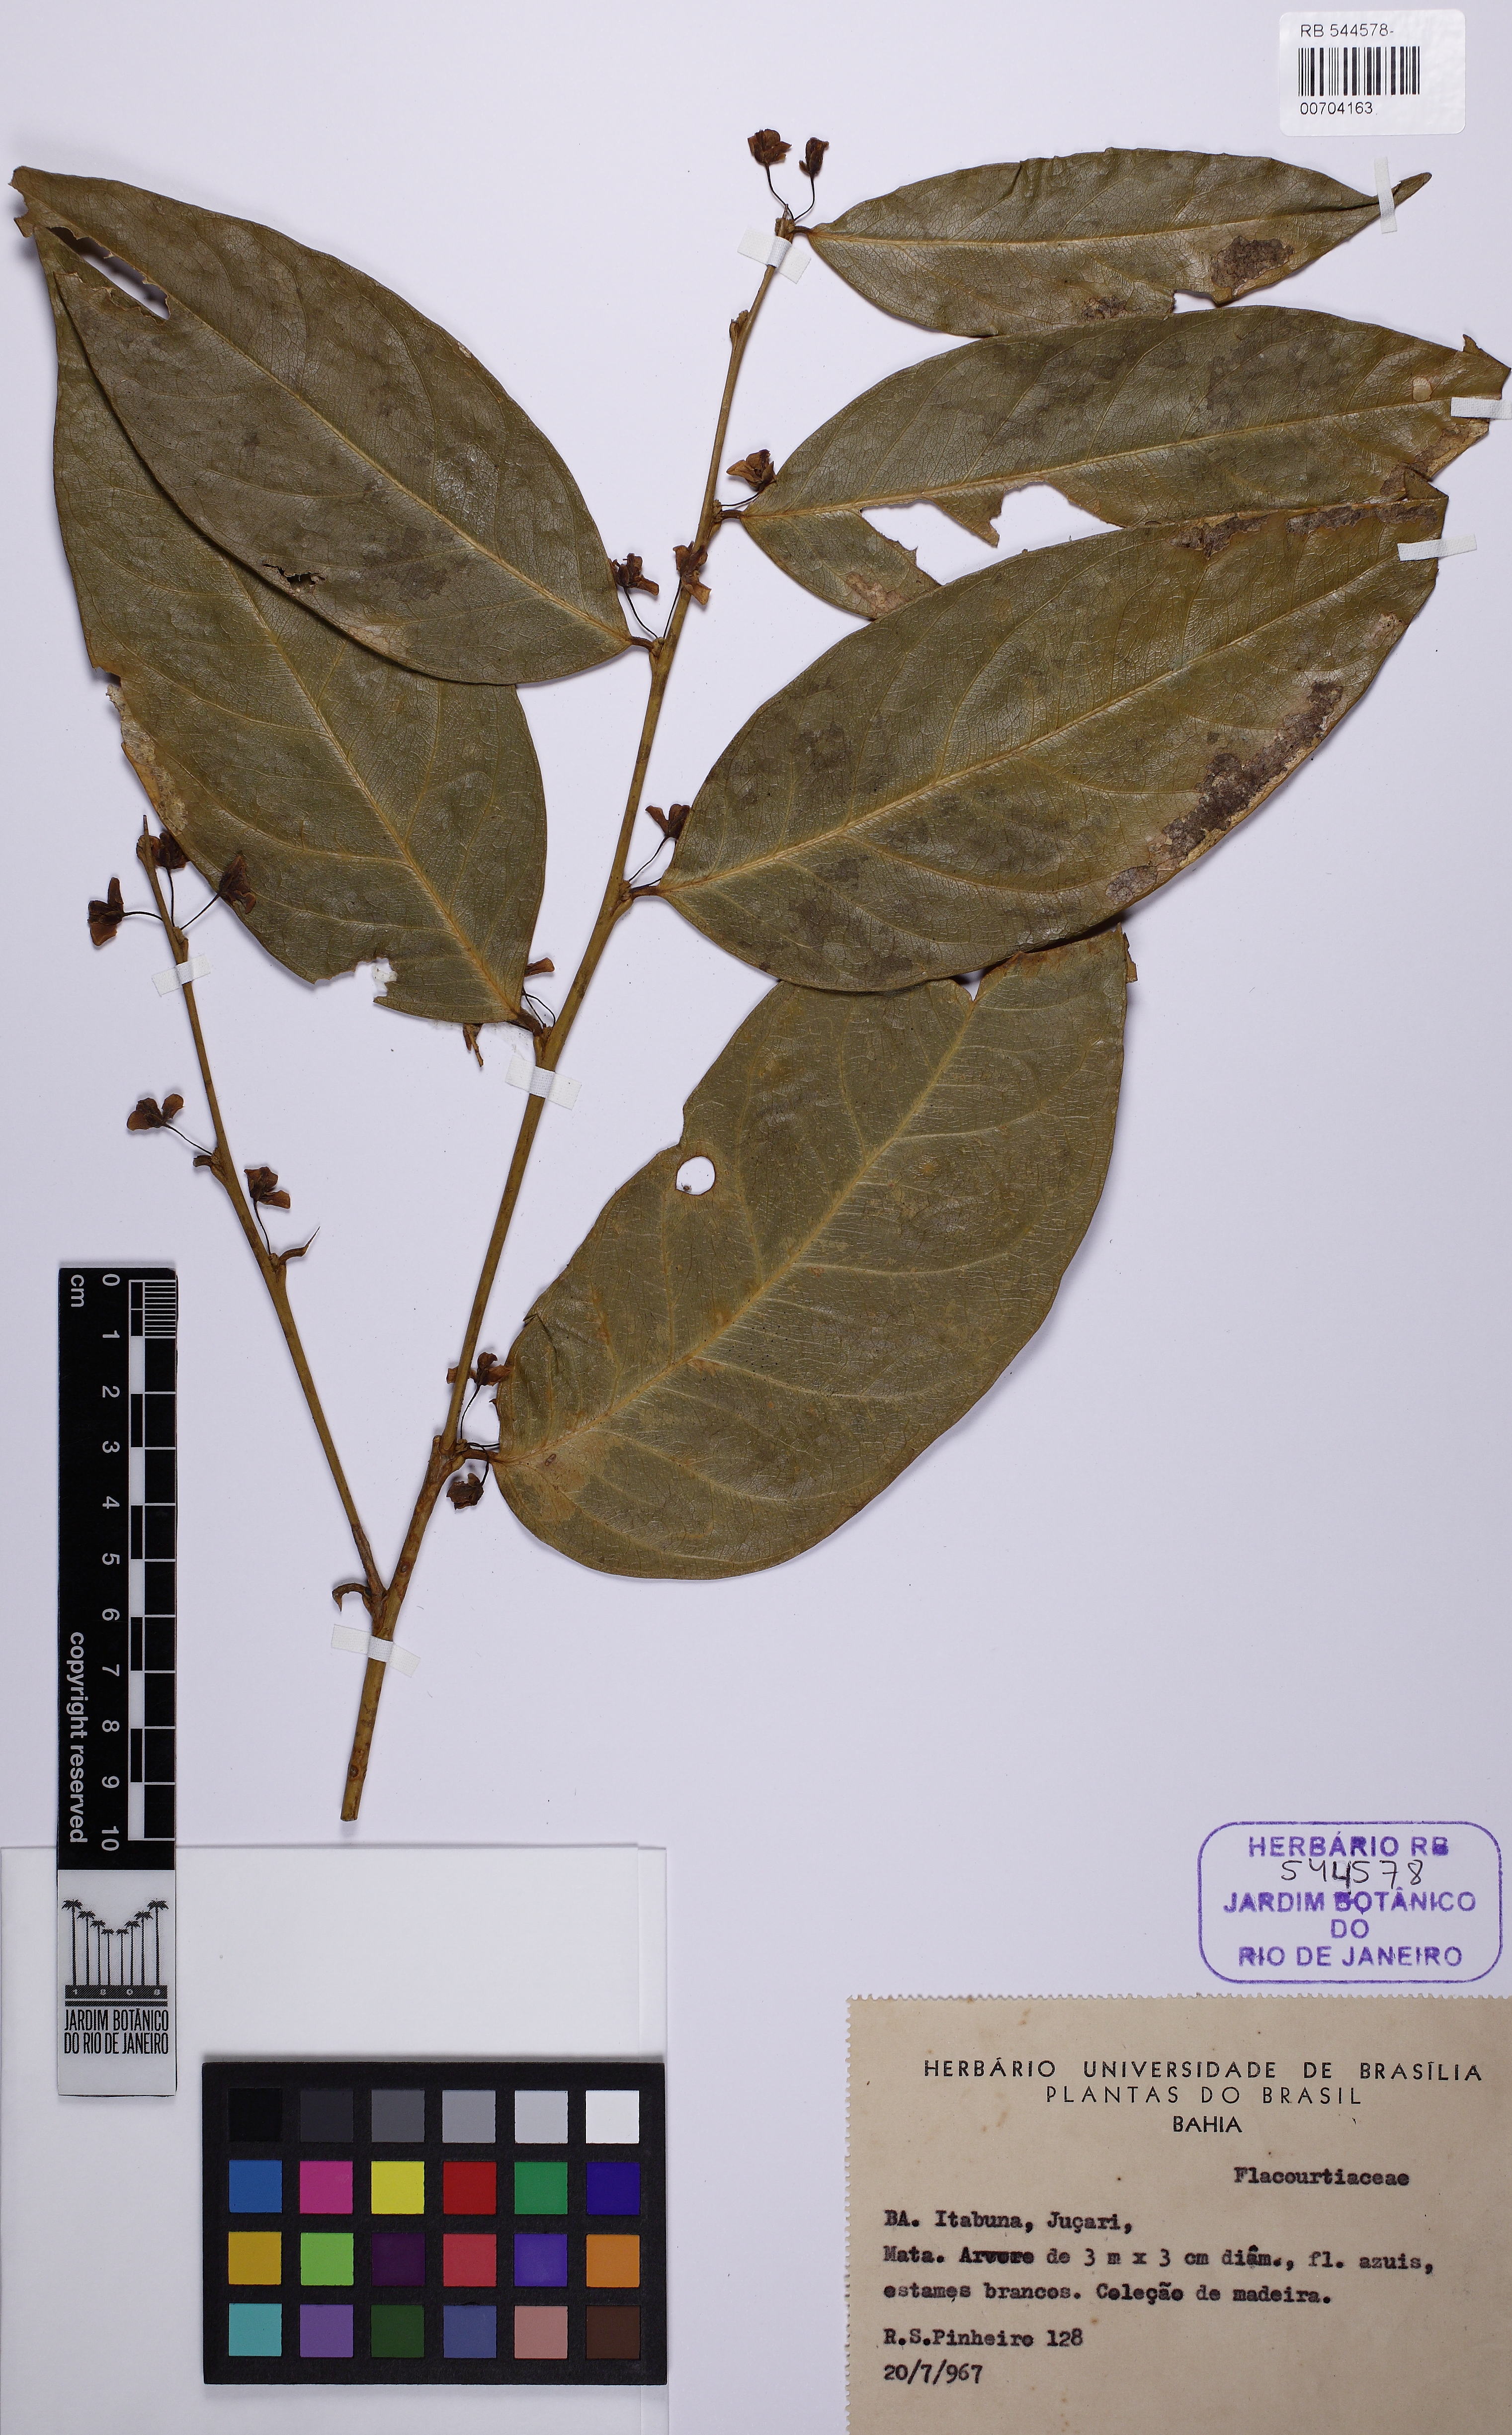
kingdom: Plantae
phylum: Tracheophyta
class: Magnoliopsida
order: Malpighiales
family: Flacourtiaceae
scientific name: Flacourtiaceae
